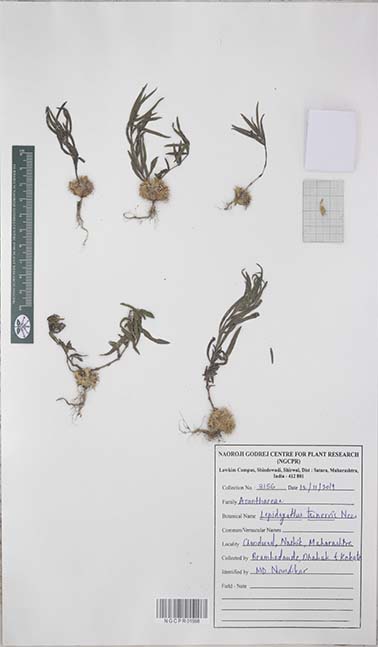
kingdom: Plantae
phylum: Tracheophyta
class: Magnoliopsida
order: Lamiales
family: Acanthaceae
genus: Lepidagathis
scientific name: Lepidagathis trinervis
